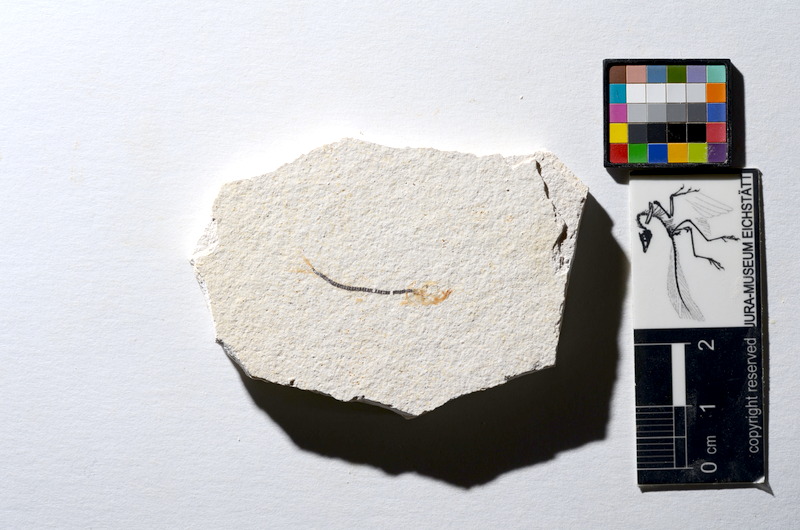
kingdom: Animalia
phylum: Chordata
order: Salmoniformes
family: Orthogonikleithridae
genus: Orthogonikleithrus
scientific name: Orthogonikleithrus hoelli
